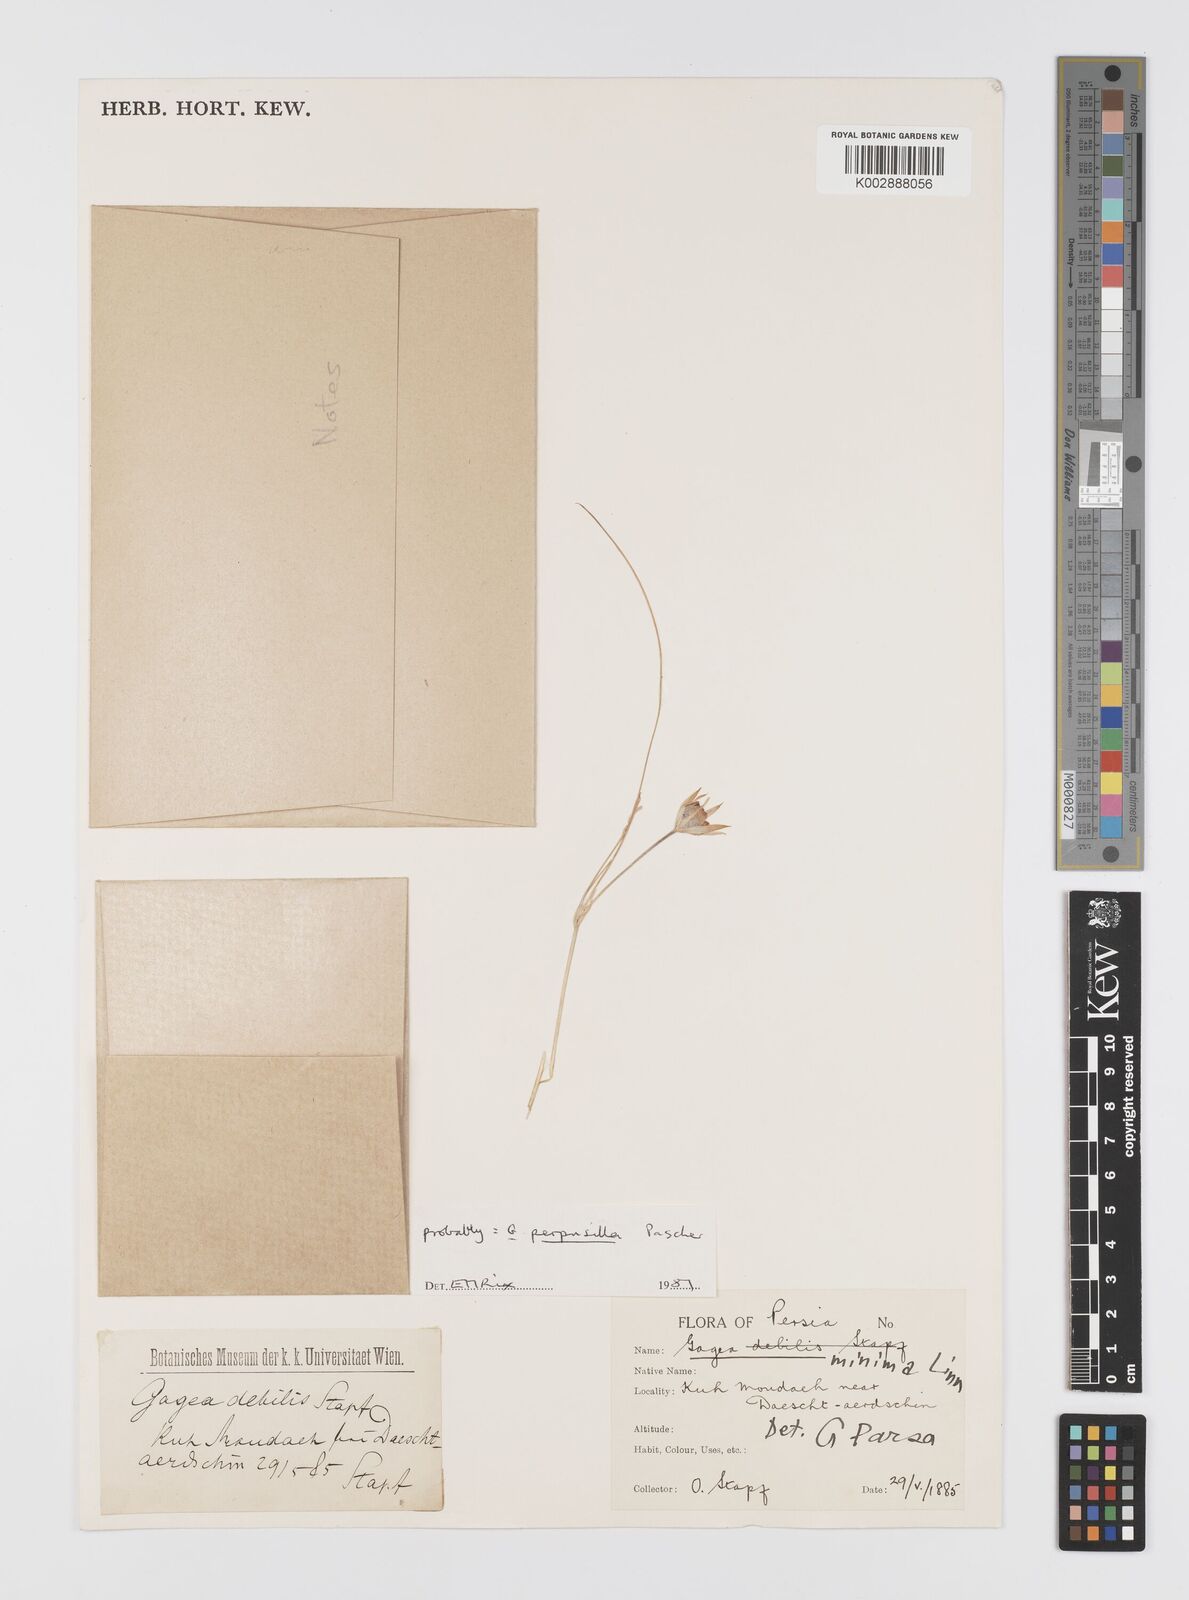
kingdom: Plantae
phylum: Tracheophyta
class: Liliopsida
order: Liliales
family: Liliaceae
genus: Gagea
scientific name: Gagea pusilla
